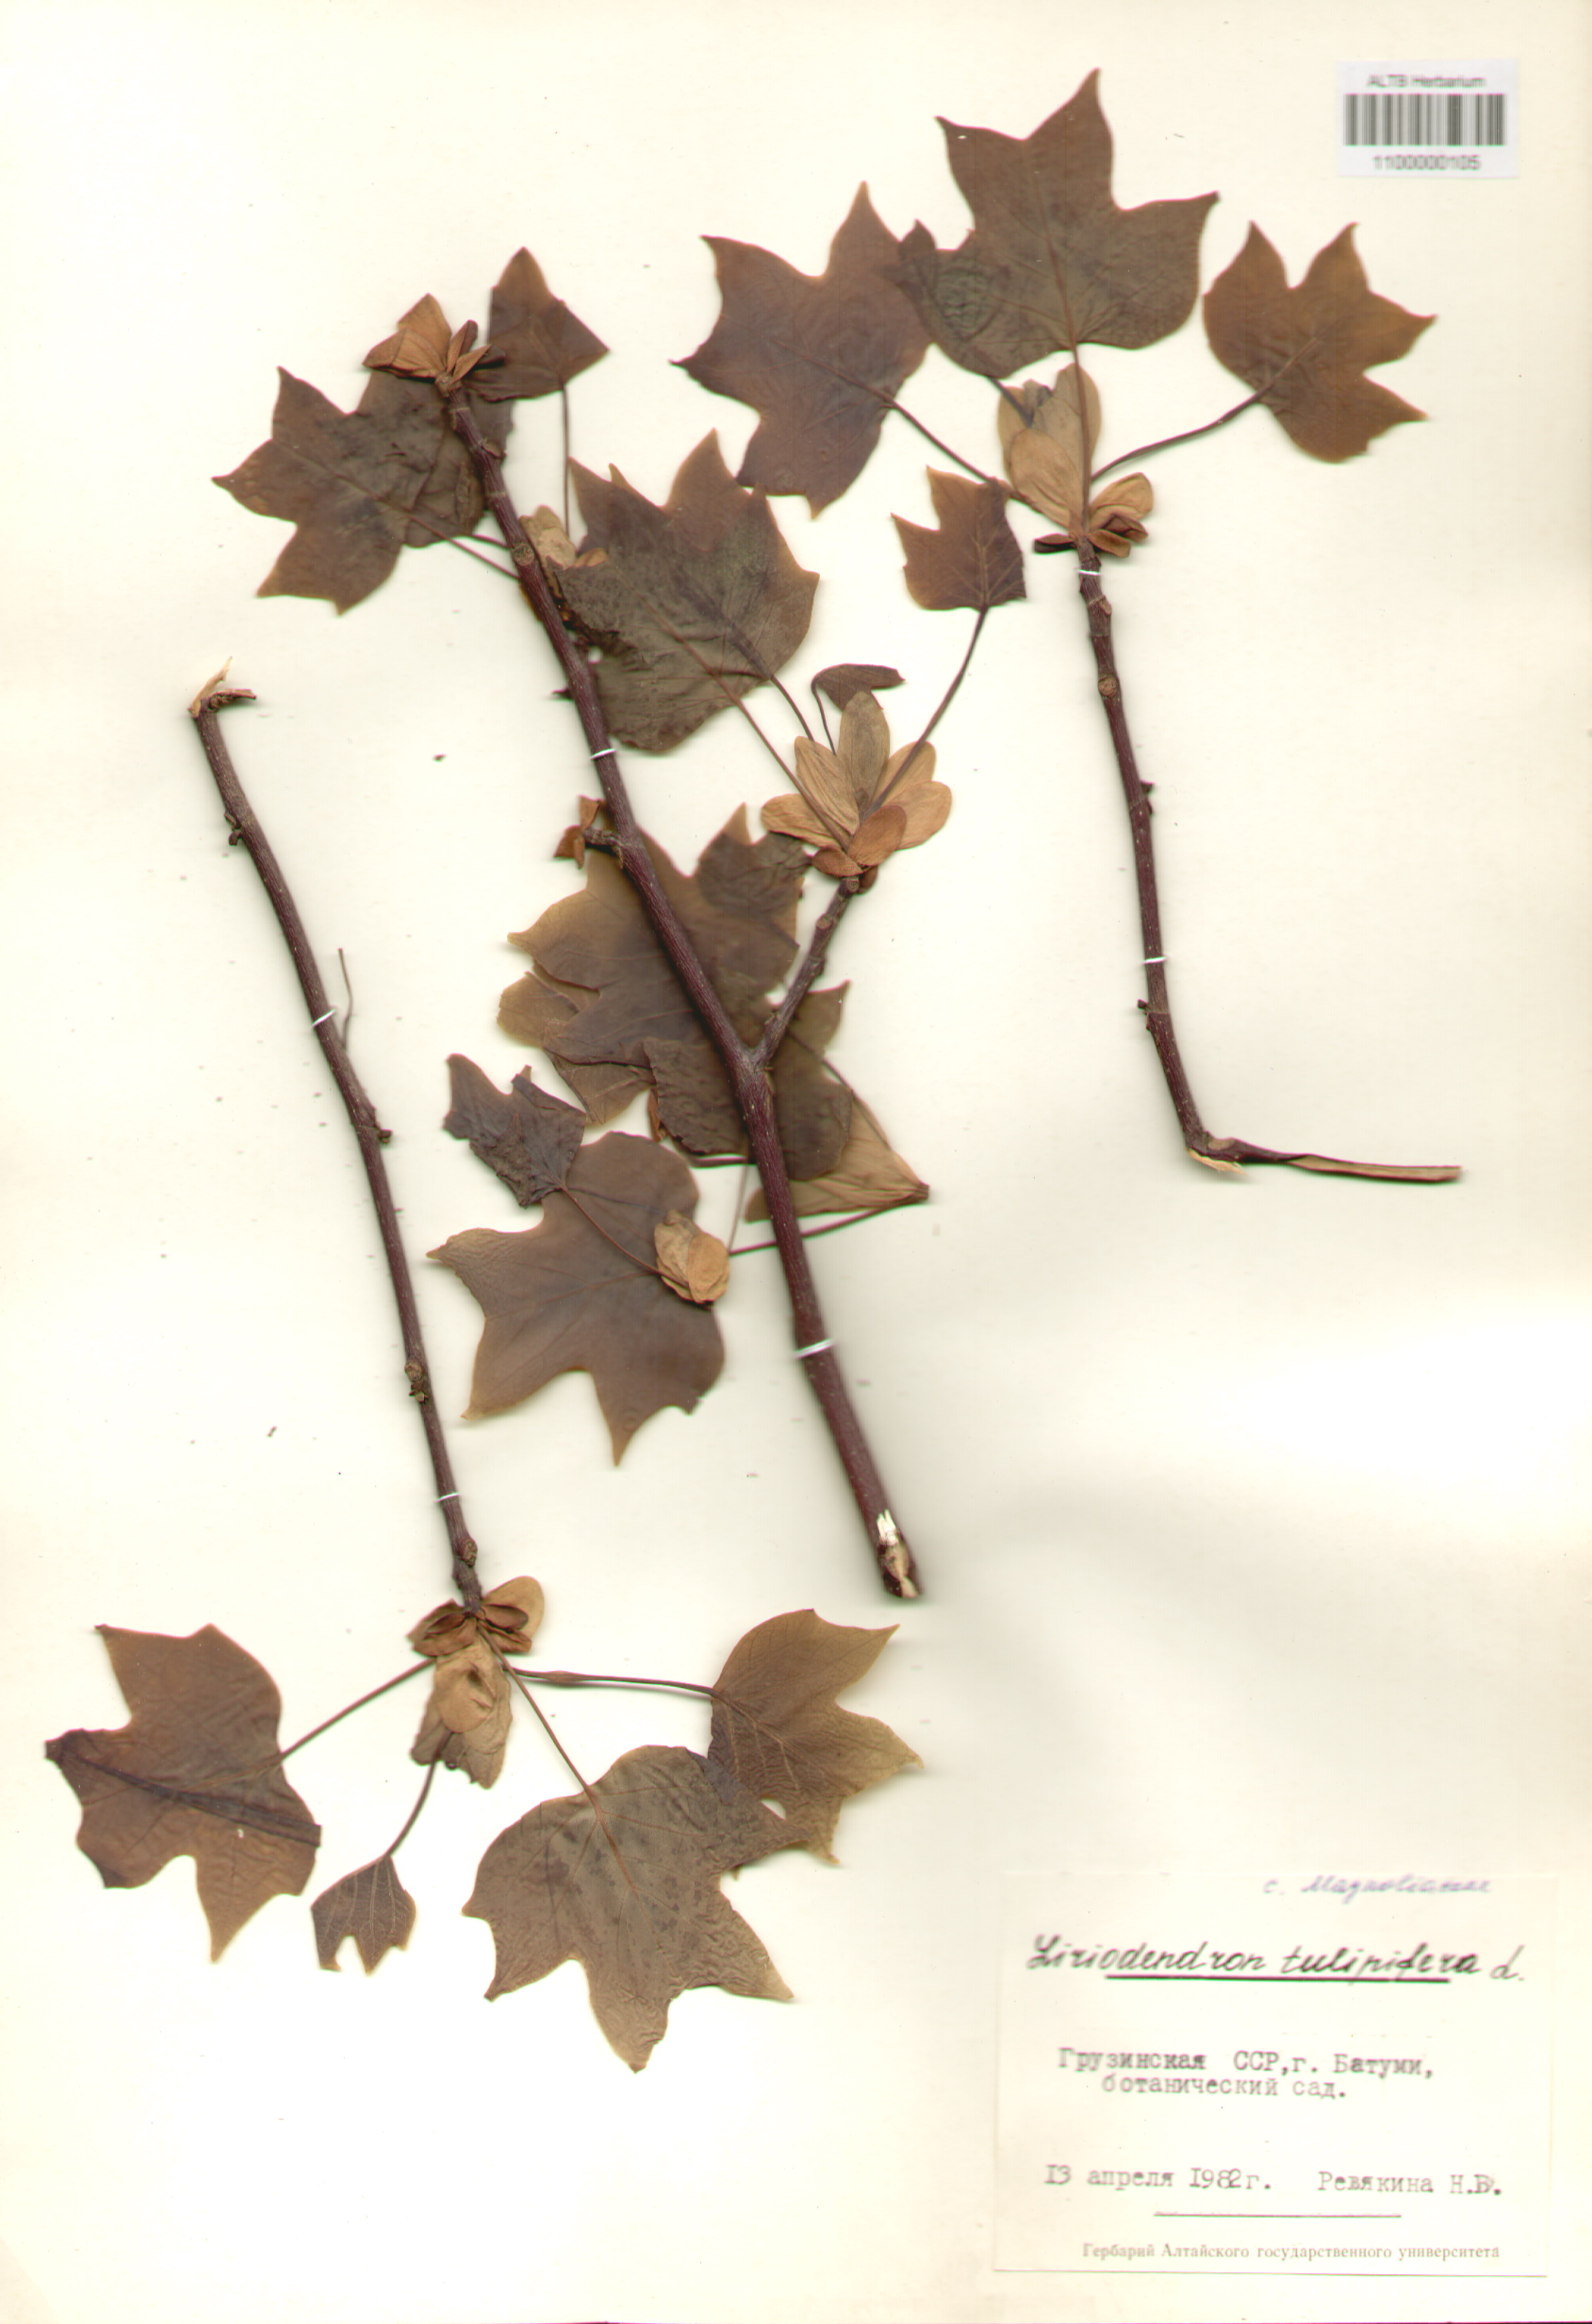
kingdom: Plantae
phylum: Tracheophyta
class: Magnoliopsida
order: Magnoliales
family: Magnoliaceae
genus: Liriodendron
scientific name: Liriodendron tulipifera
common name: Tulip tree
